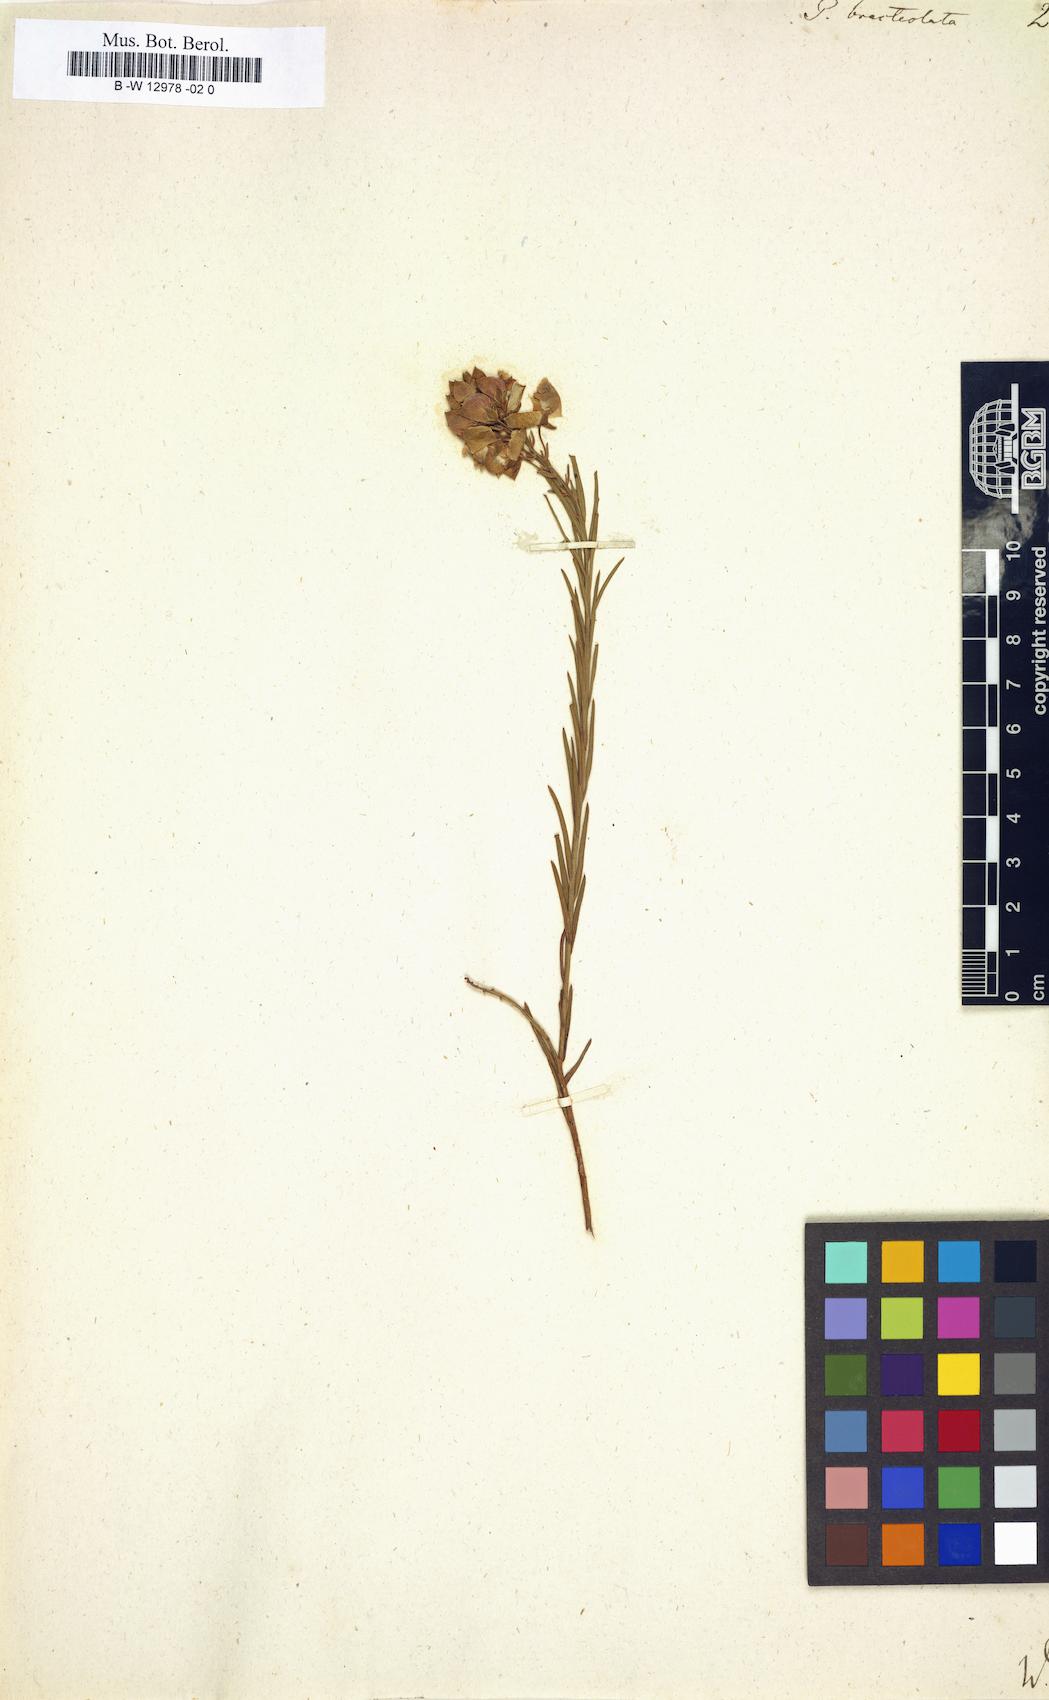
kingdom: Plantae
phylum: Tracheophyta
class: Magnoliopsida
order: Fabales
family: Polygalaceae
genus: Polygala
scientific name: Polygala bracteolata
